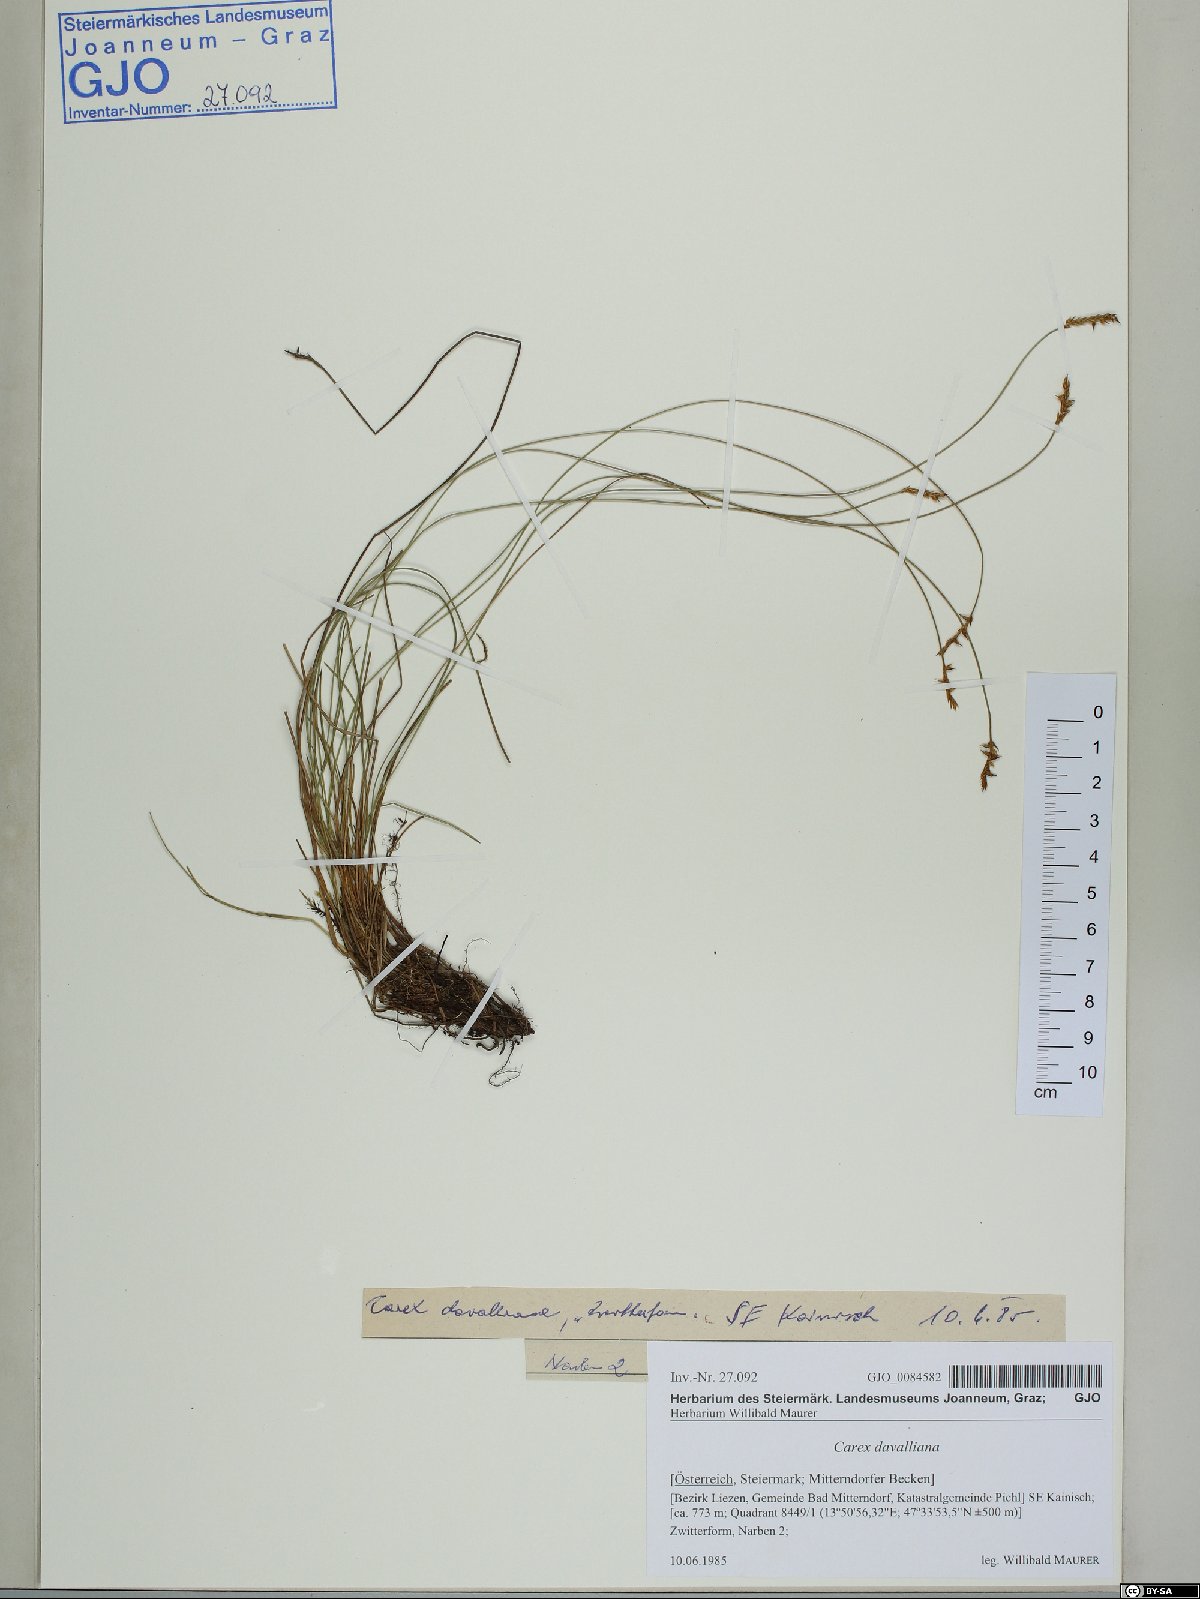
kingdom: Plantae
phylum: Tracheophyta
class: Liliopsida
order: Poales
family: Cyperaceae
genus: Carex
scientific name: Carex davalliana
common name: Davall's sedge
